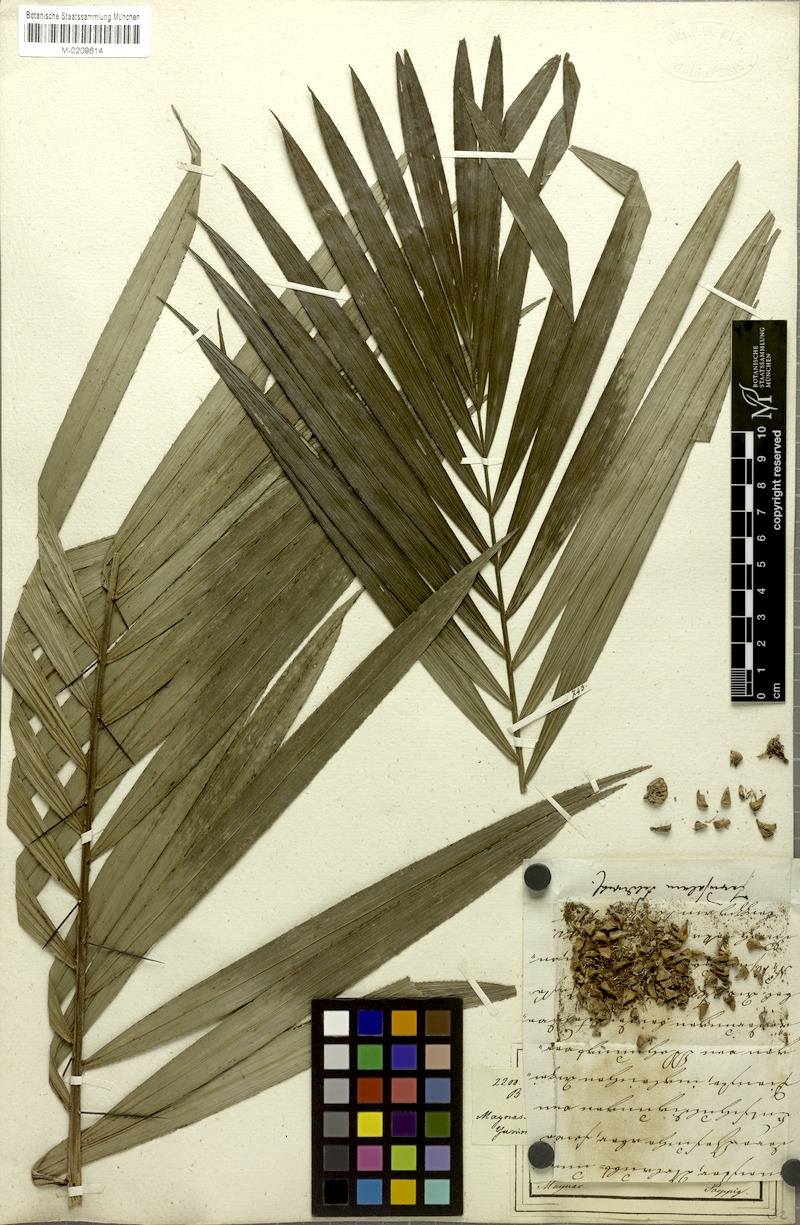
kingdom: Plantae
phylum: Tracheophyta
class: Liliopsida
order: Arecales
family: Arecaceae
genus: Bactris
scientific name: Bactris concinna
